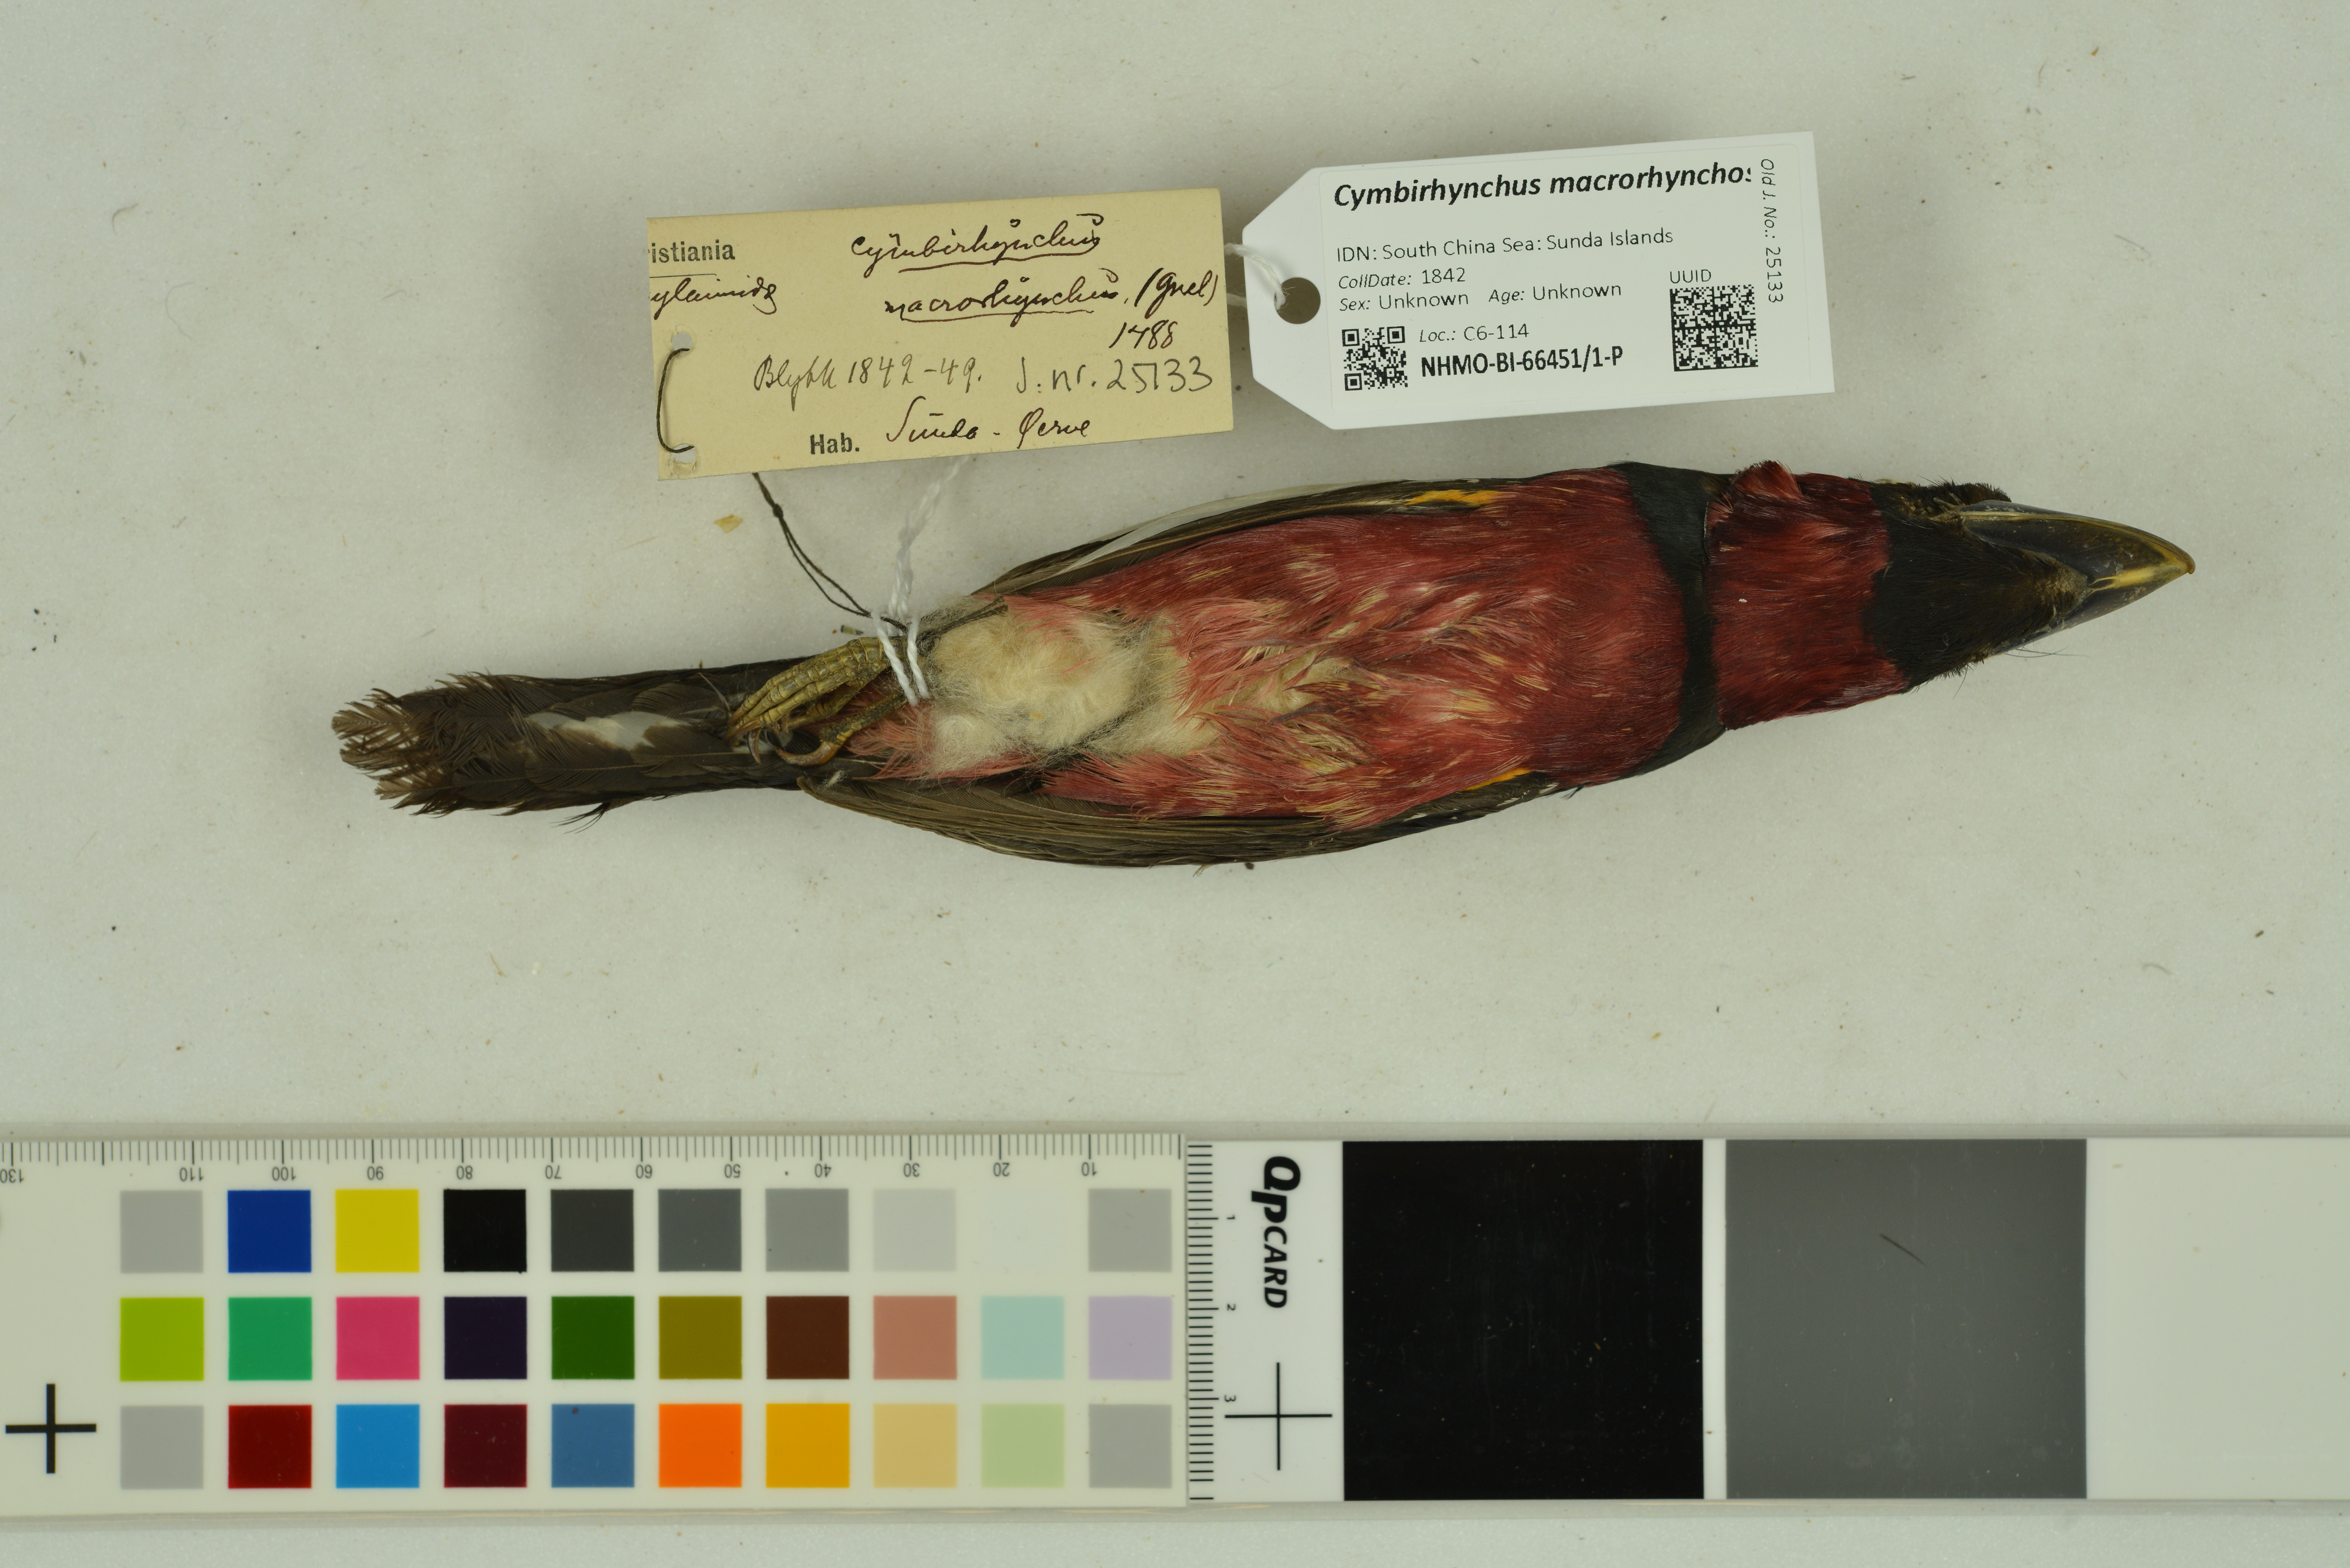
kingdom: Animalia
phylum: Chordata
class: Aves
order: Passeriformes
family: Eurylaimidae
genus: Cymbirhynchus
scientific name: Cymbirhynchus macrorhynchos
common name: Black-and-red broadbill
